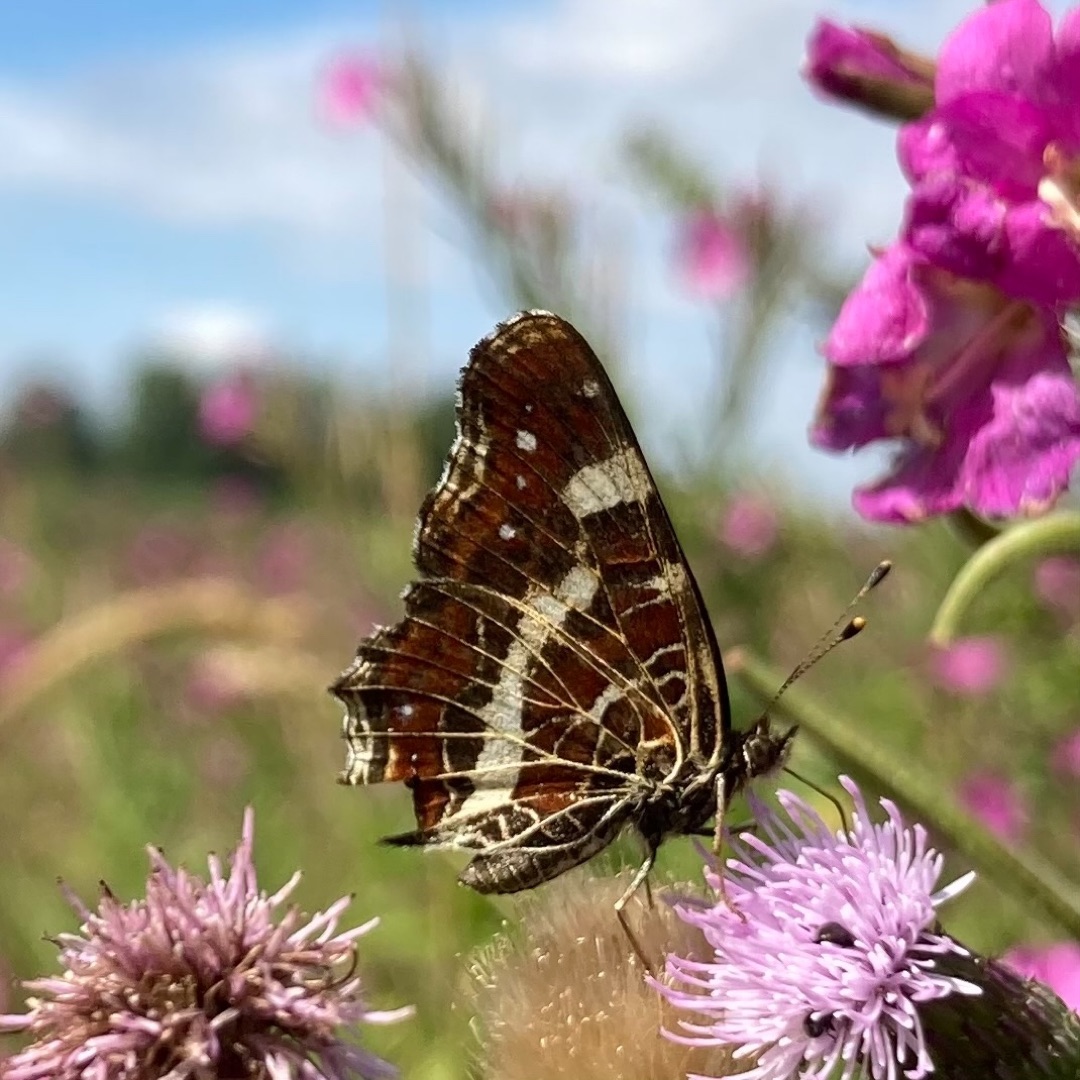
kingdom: Animalia
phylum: Arthropoda
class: Insecta
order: Lepidoptera
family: Nymphalidae
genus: Araschnia
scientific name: Araschnia levana
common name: Nældesommerfugl
